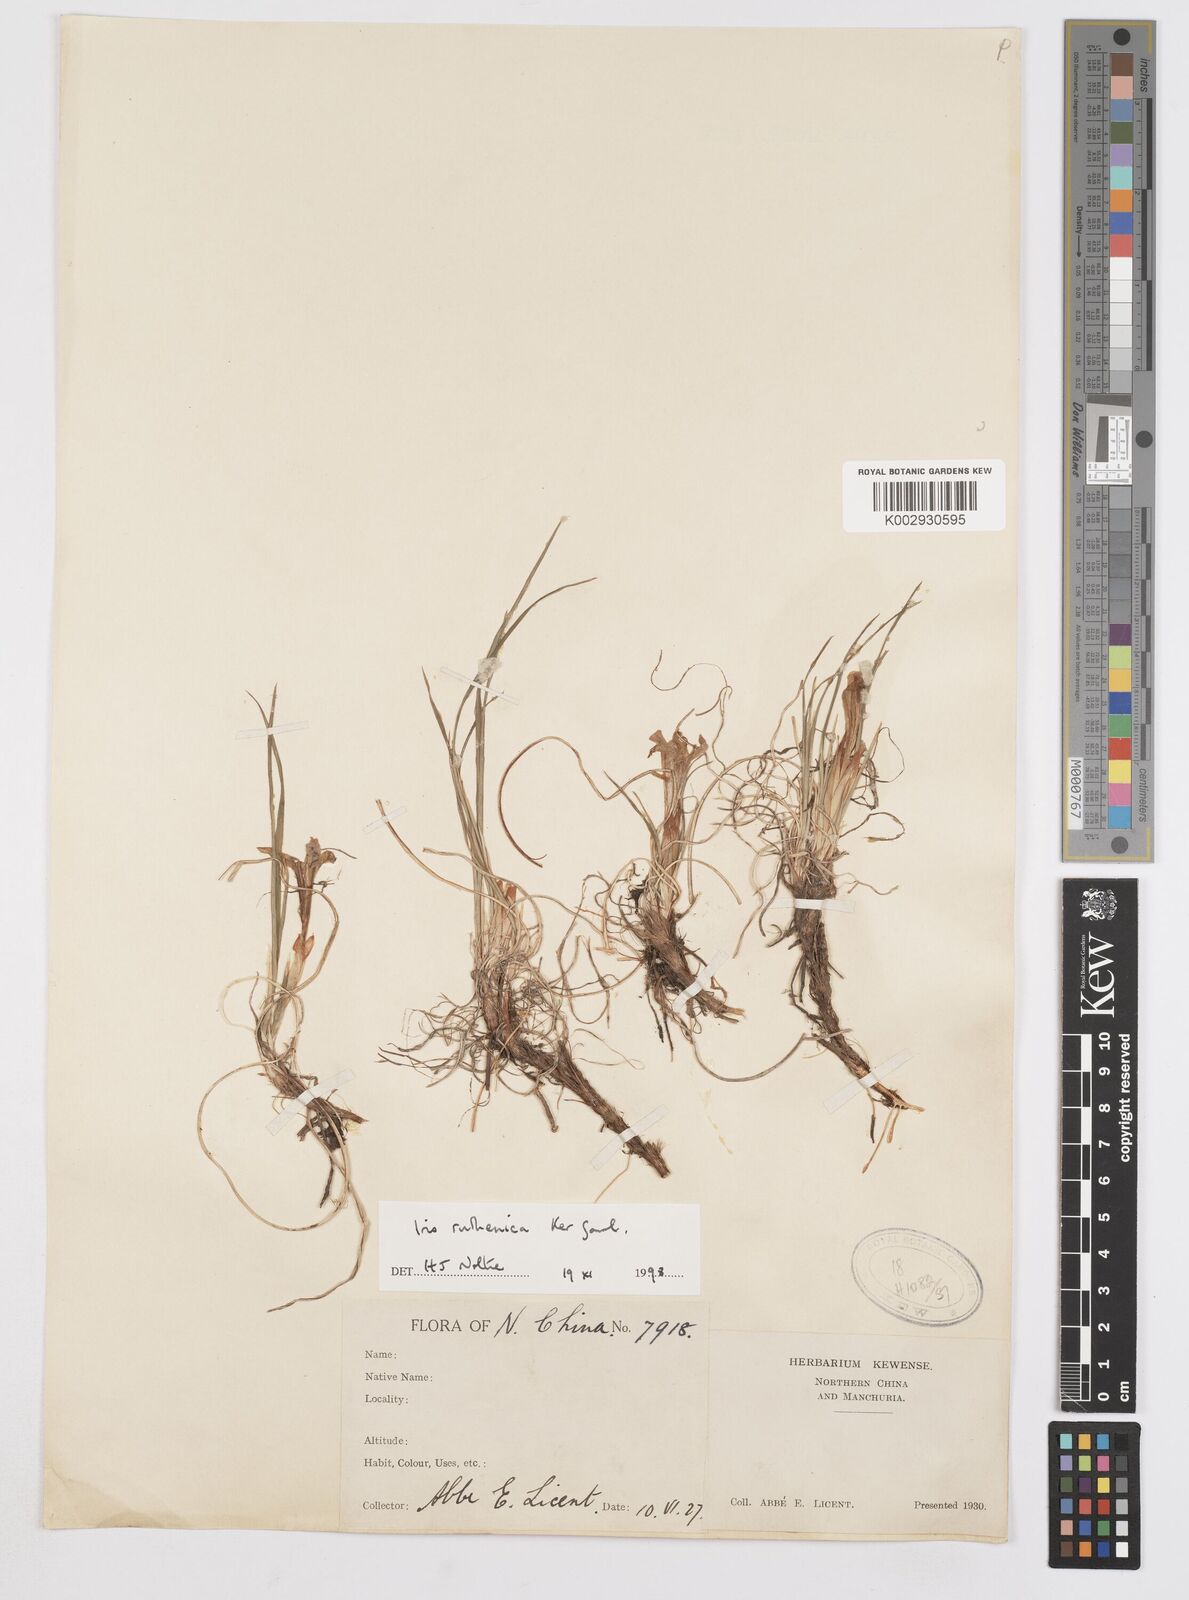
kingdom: Plantae
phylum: Tracheophyta
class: Liliopsida
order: Asparagales
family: Iridaceae
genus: Iris
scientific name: Iris
